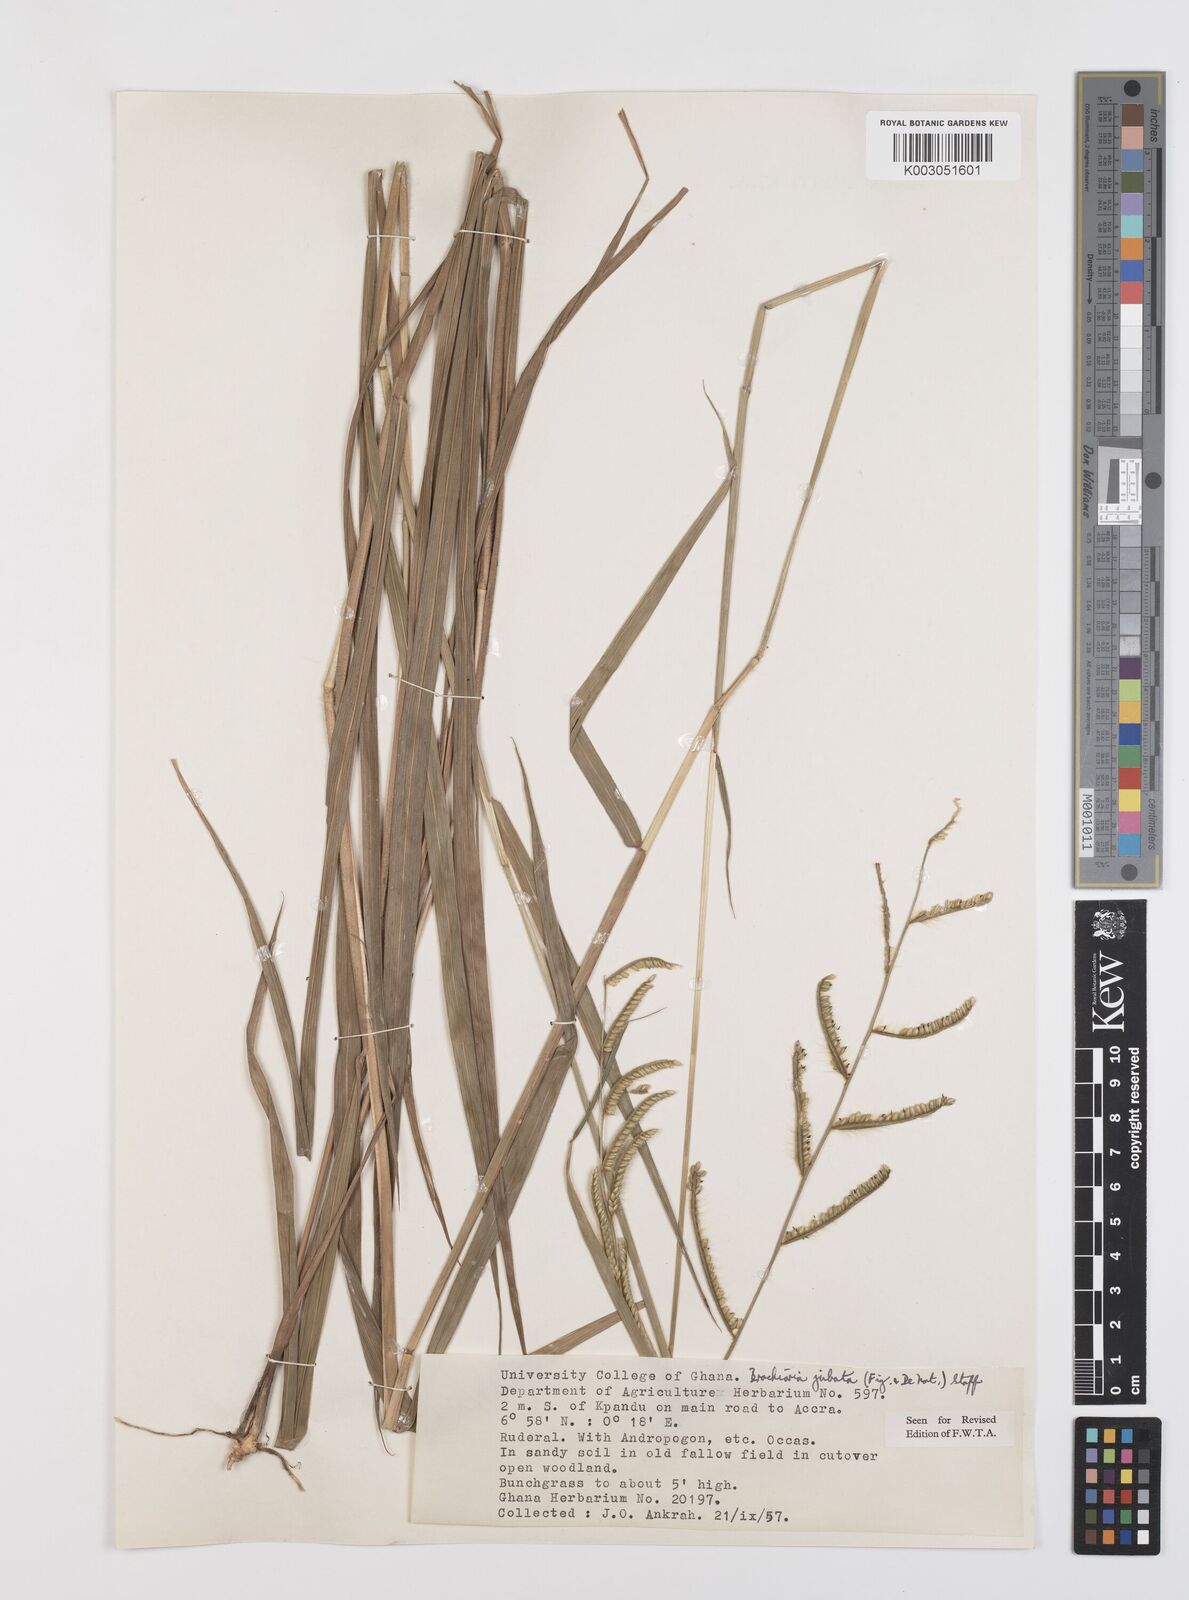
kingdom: Plantae
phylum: Tracheophyta
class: Liliopsida
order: Poales
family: Poaceae
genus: Urochloa
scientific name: Urochloa jubata
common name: Buffalograss
